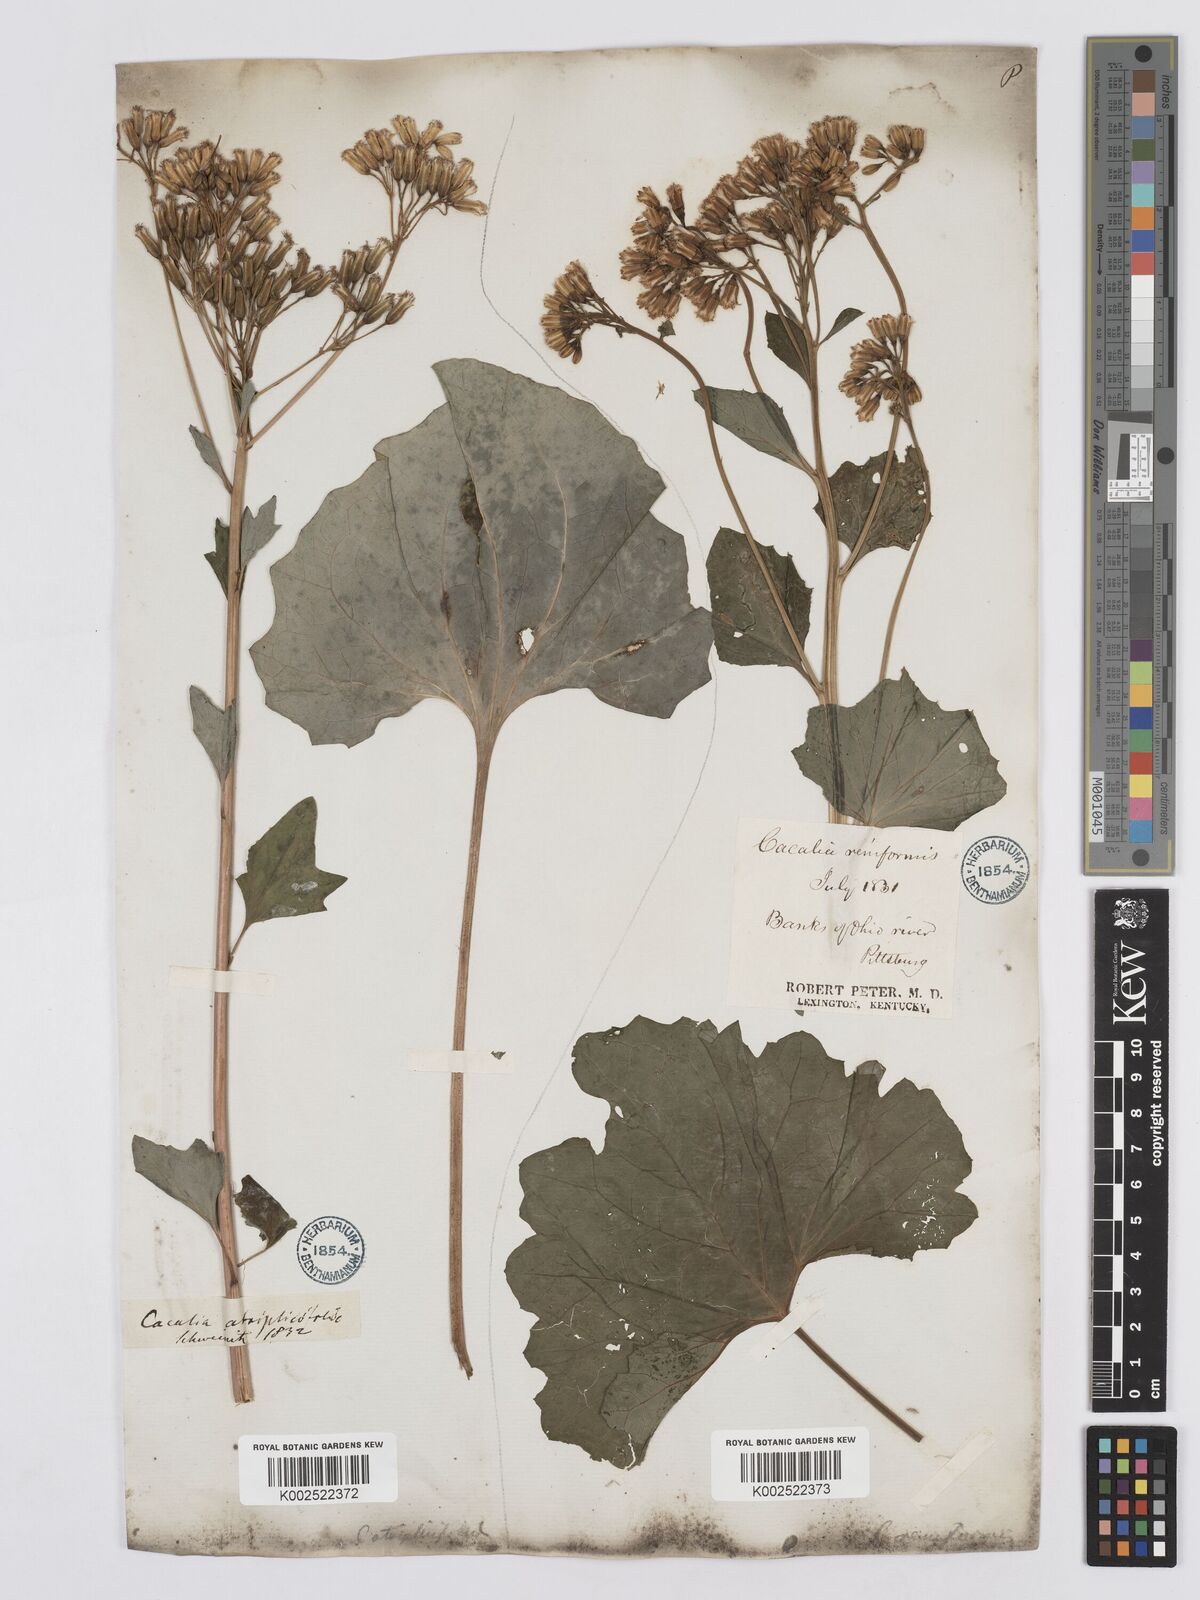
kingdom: Plantae
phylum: Tracheophyta
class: Magnoliopsida
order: Asterales
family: Asteraceae
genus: Arnoglossum
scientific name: Arnoglossum diversifolium
